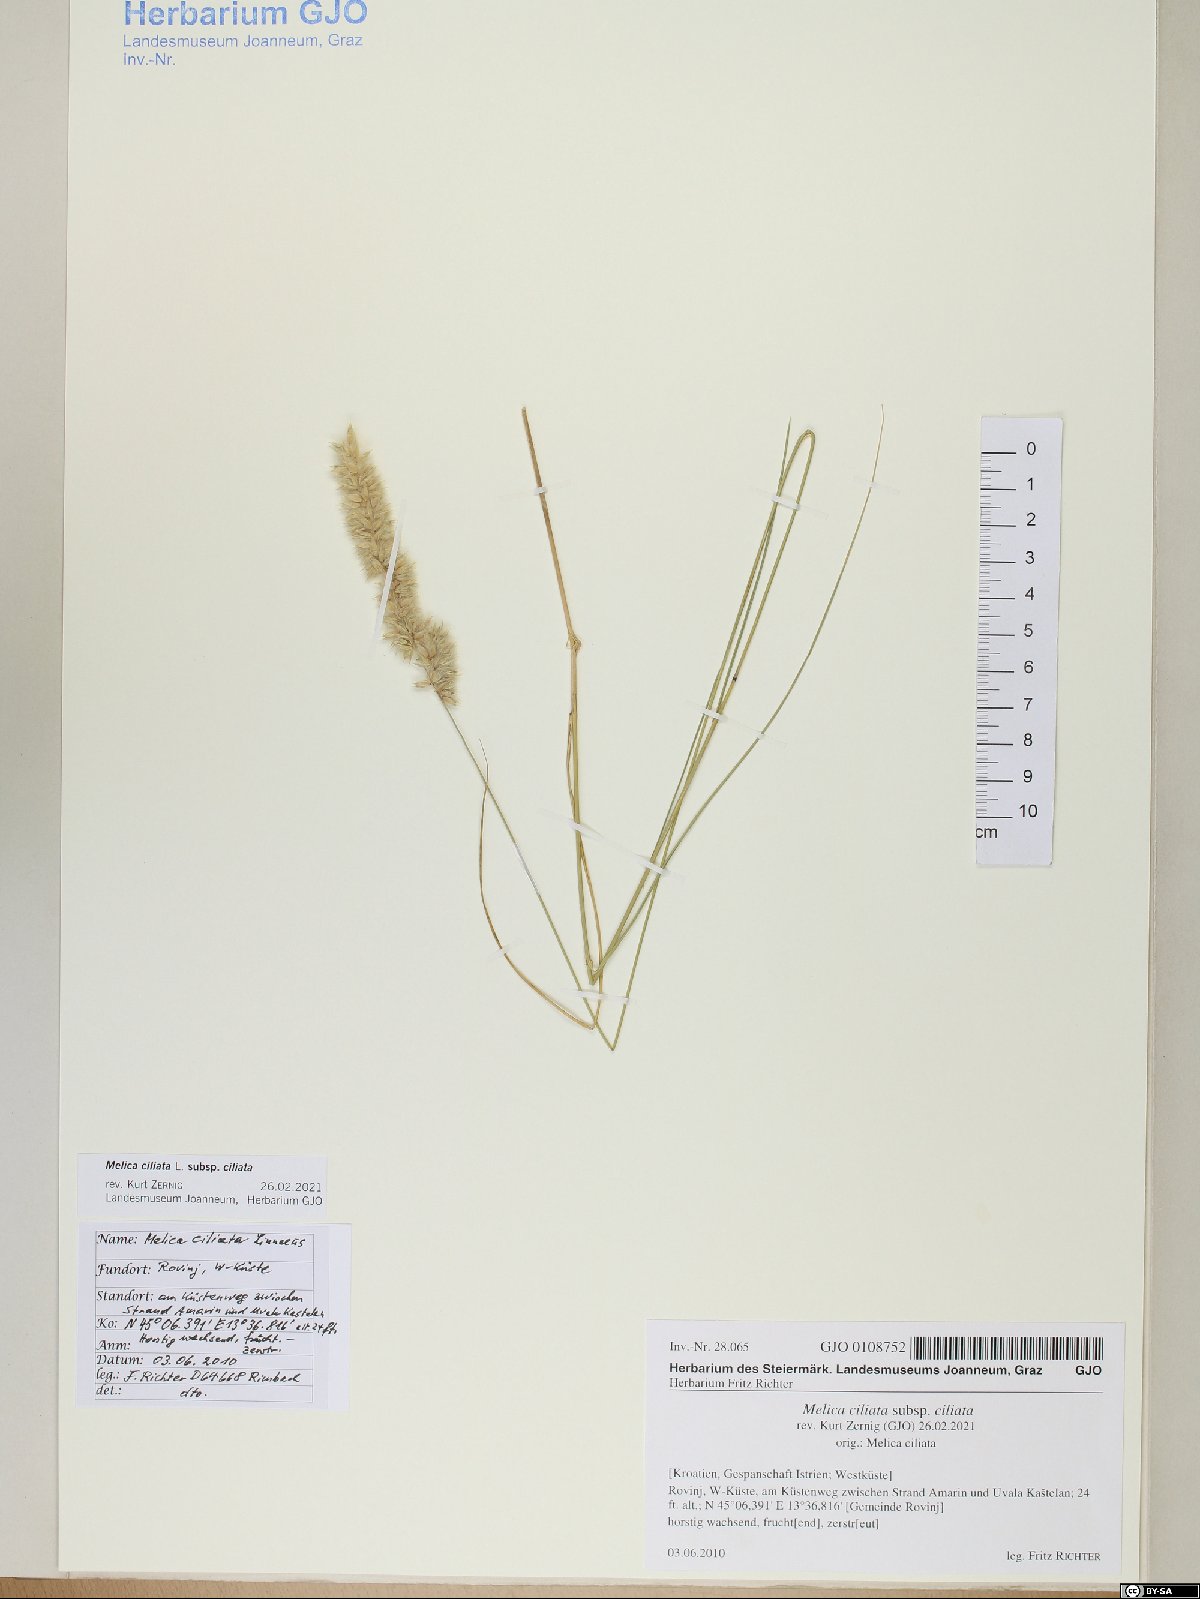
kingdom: Plantae
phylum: Tracheophyta
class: Liliopsida
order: Poales
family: Poaceae
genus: Melica
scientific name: Melica ciliata
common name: Hairy melicgrass
